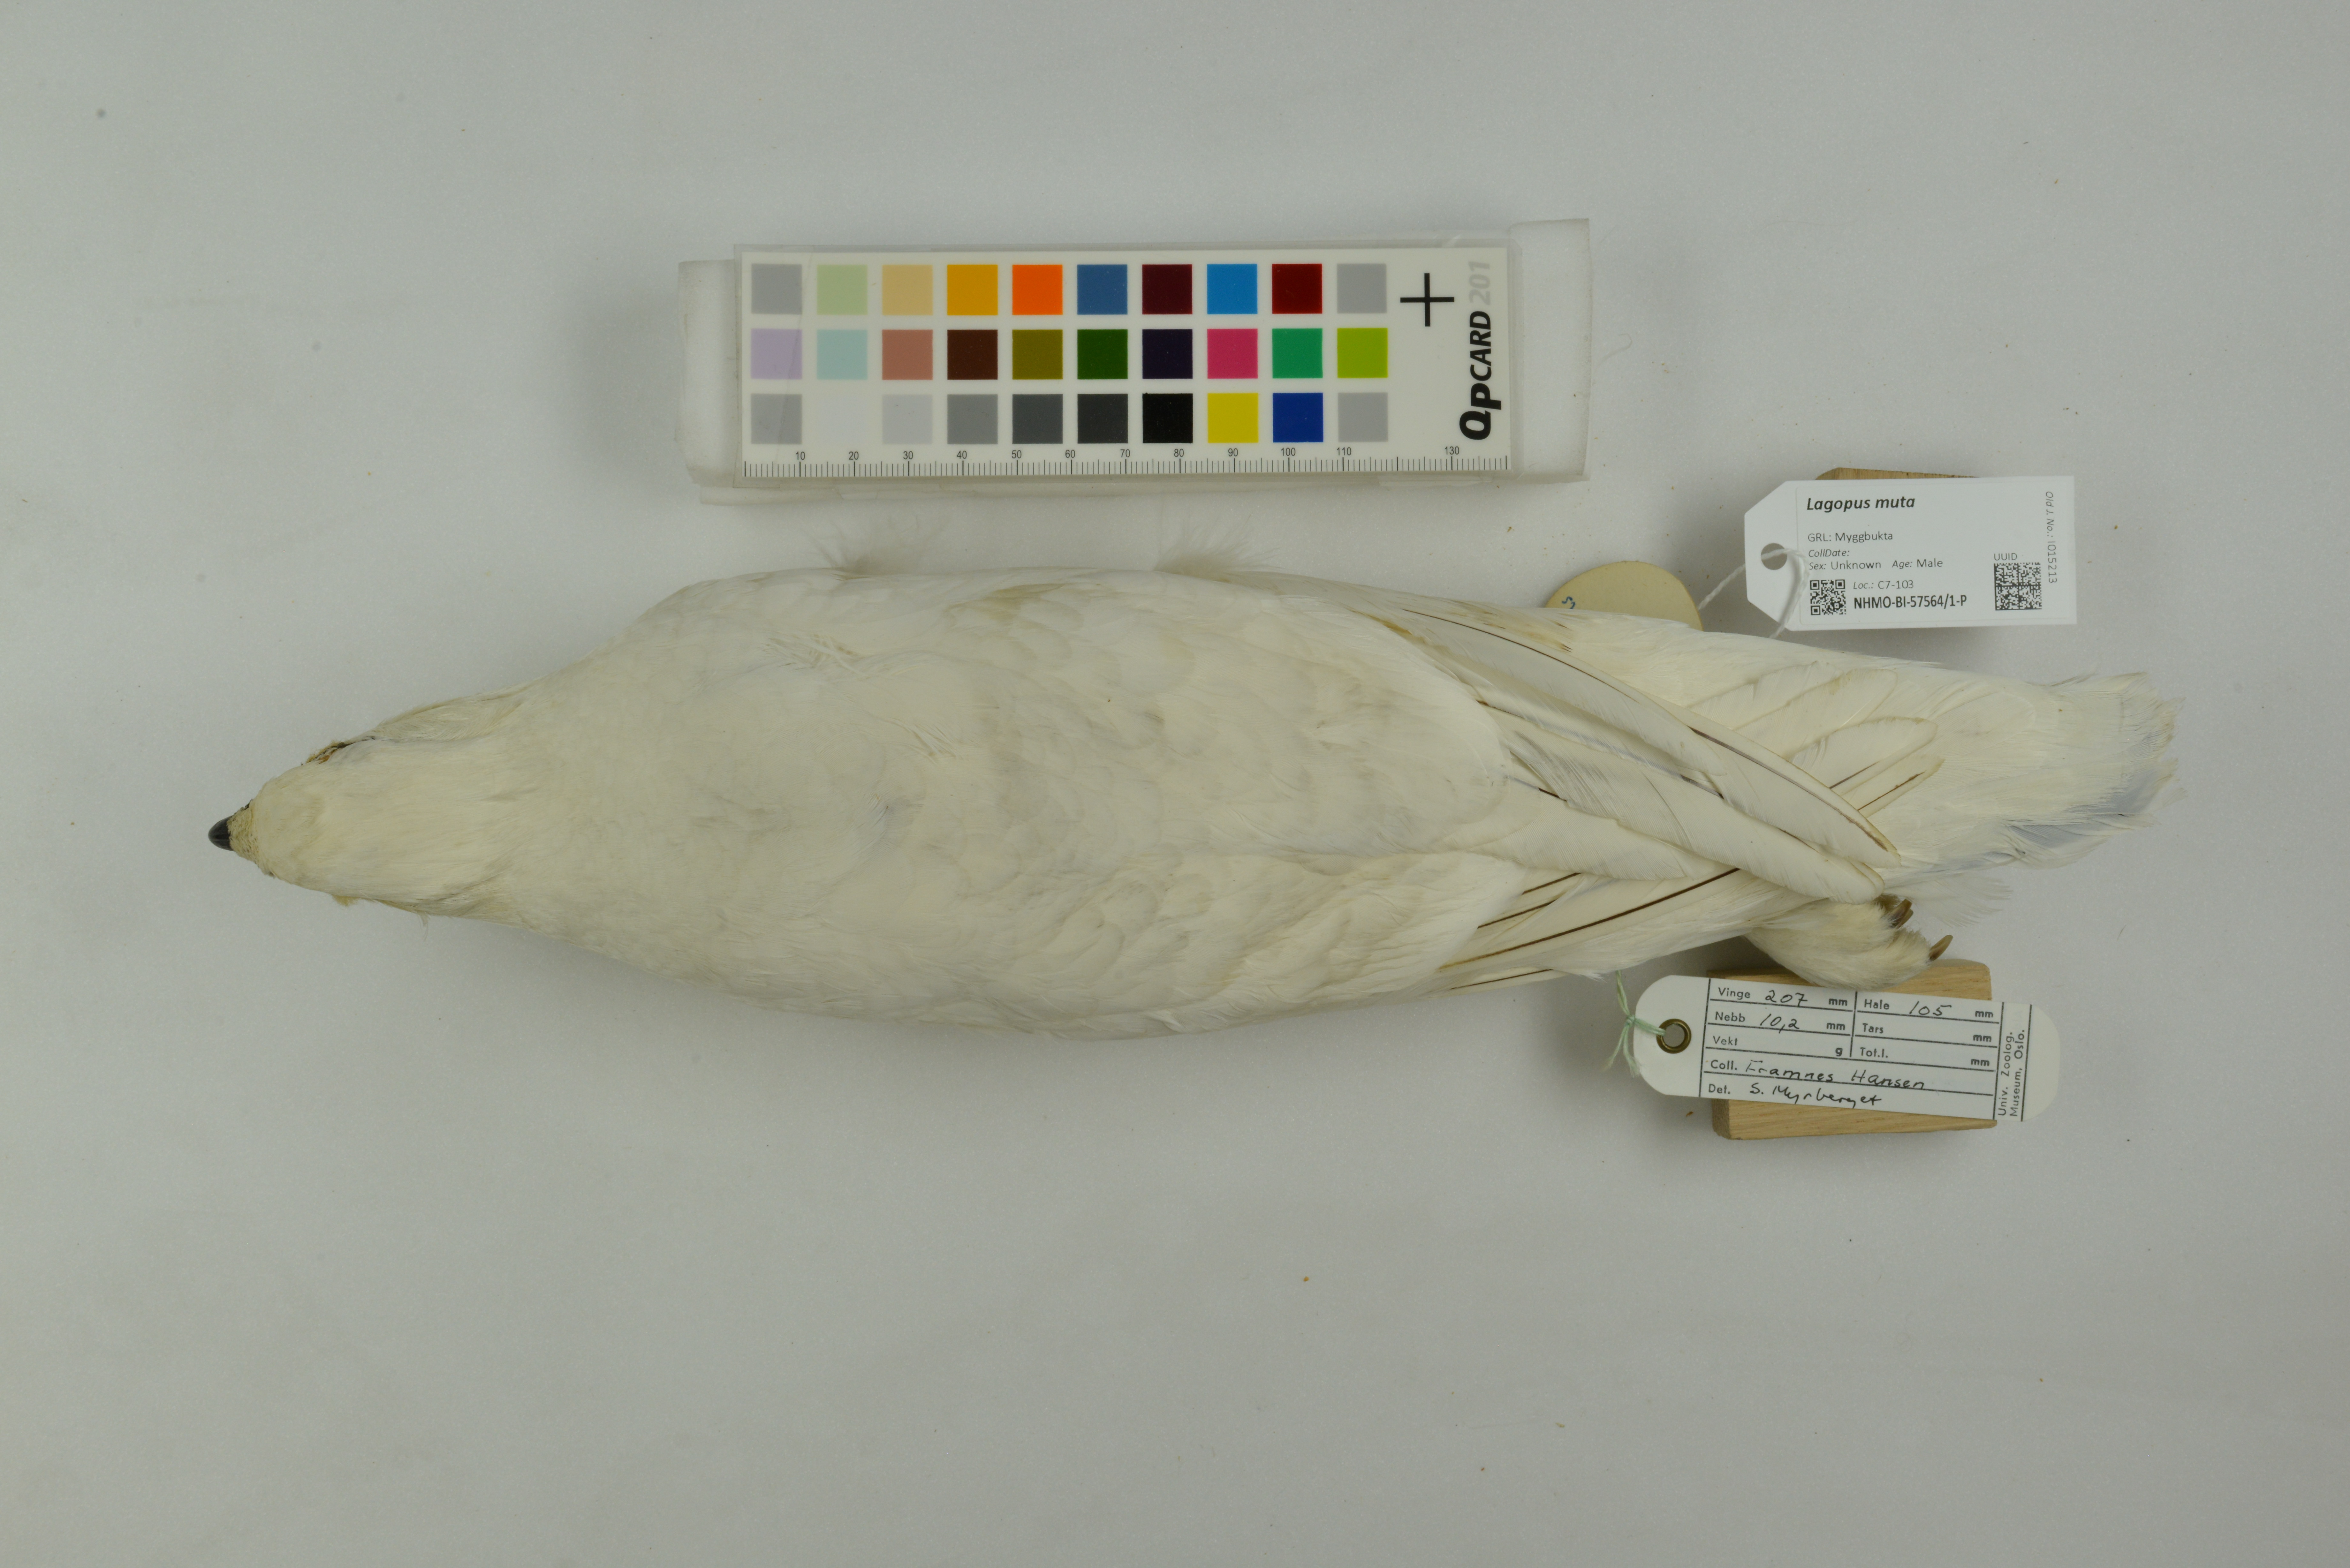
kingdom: Animalia
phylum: Chordata
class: Aves
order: Galliformes
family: Phasianidae
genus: Lagopus
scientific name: Lagopus muta
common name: Rock ptarmigan
